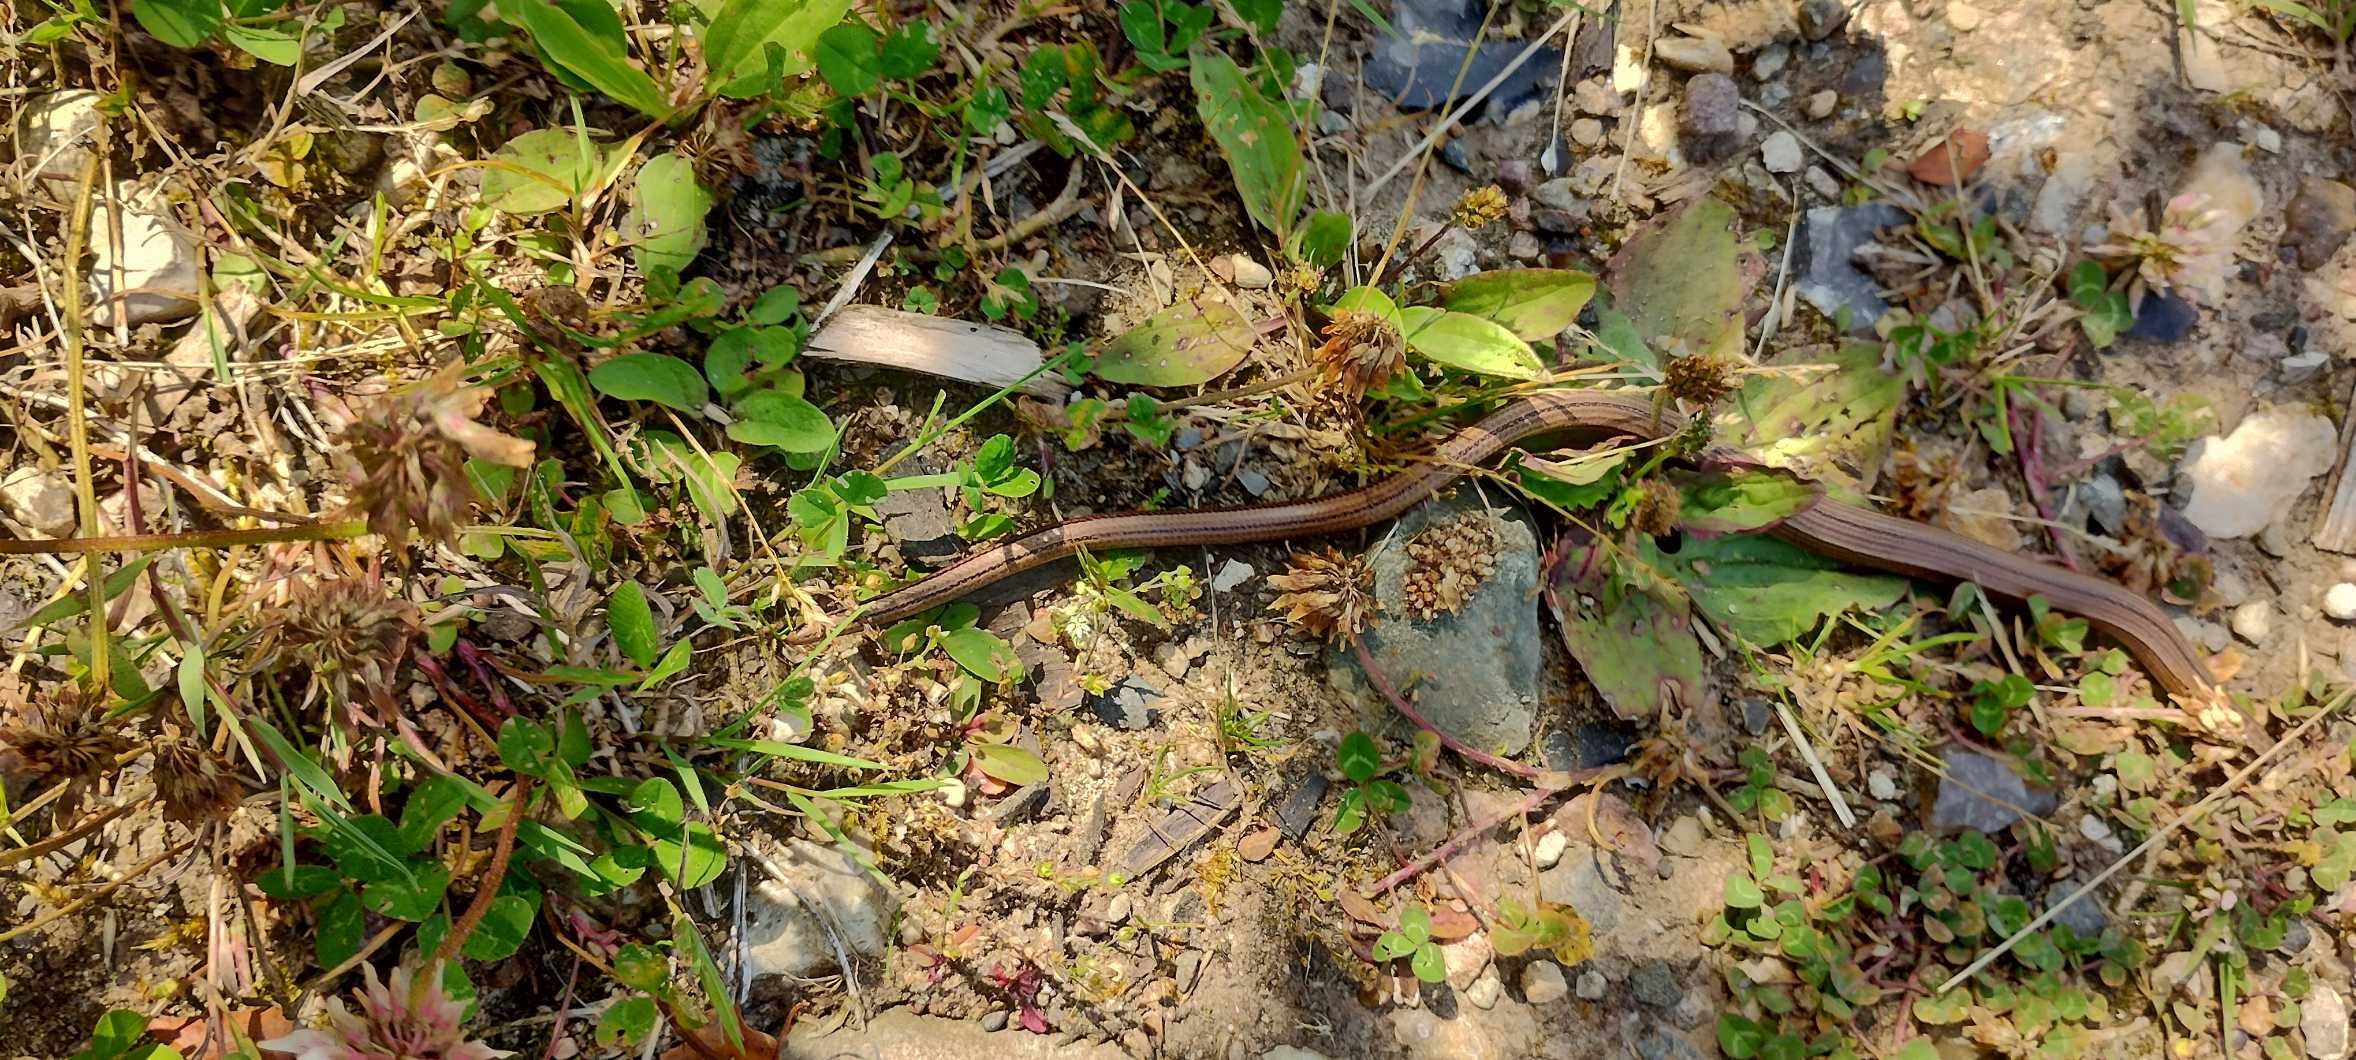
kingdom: Animalia
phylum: Chordata
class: Squamata
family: Anguidae
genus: Anguis
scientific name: Anguis fragilis
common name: Stålorm
